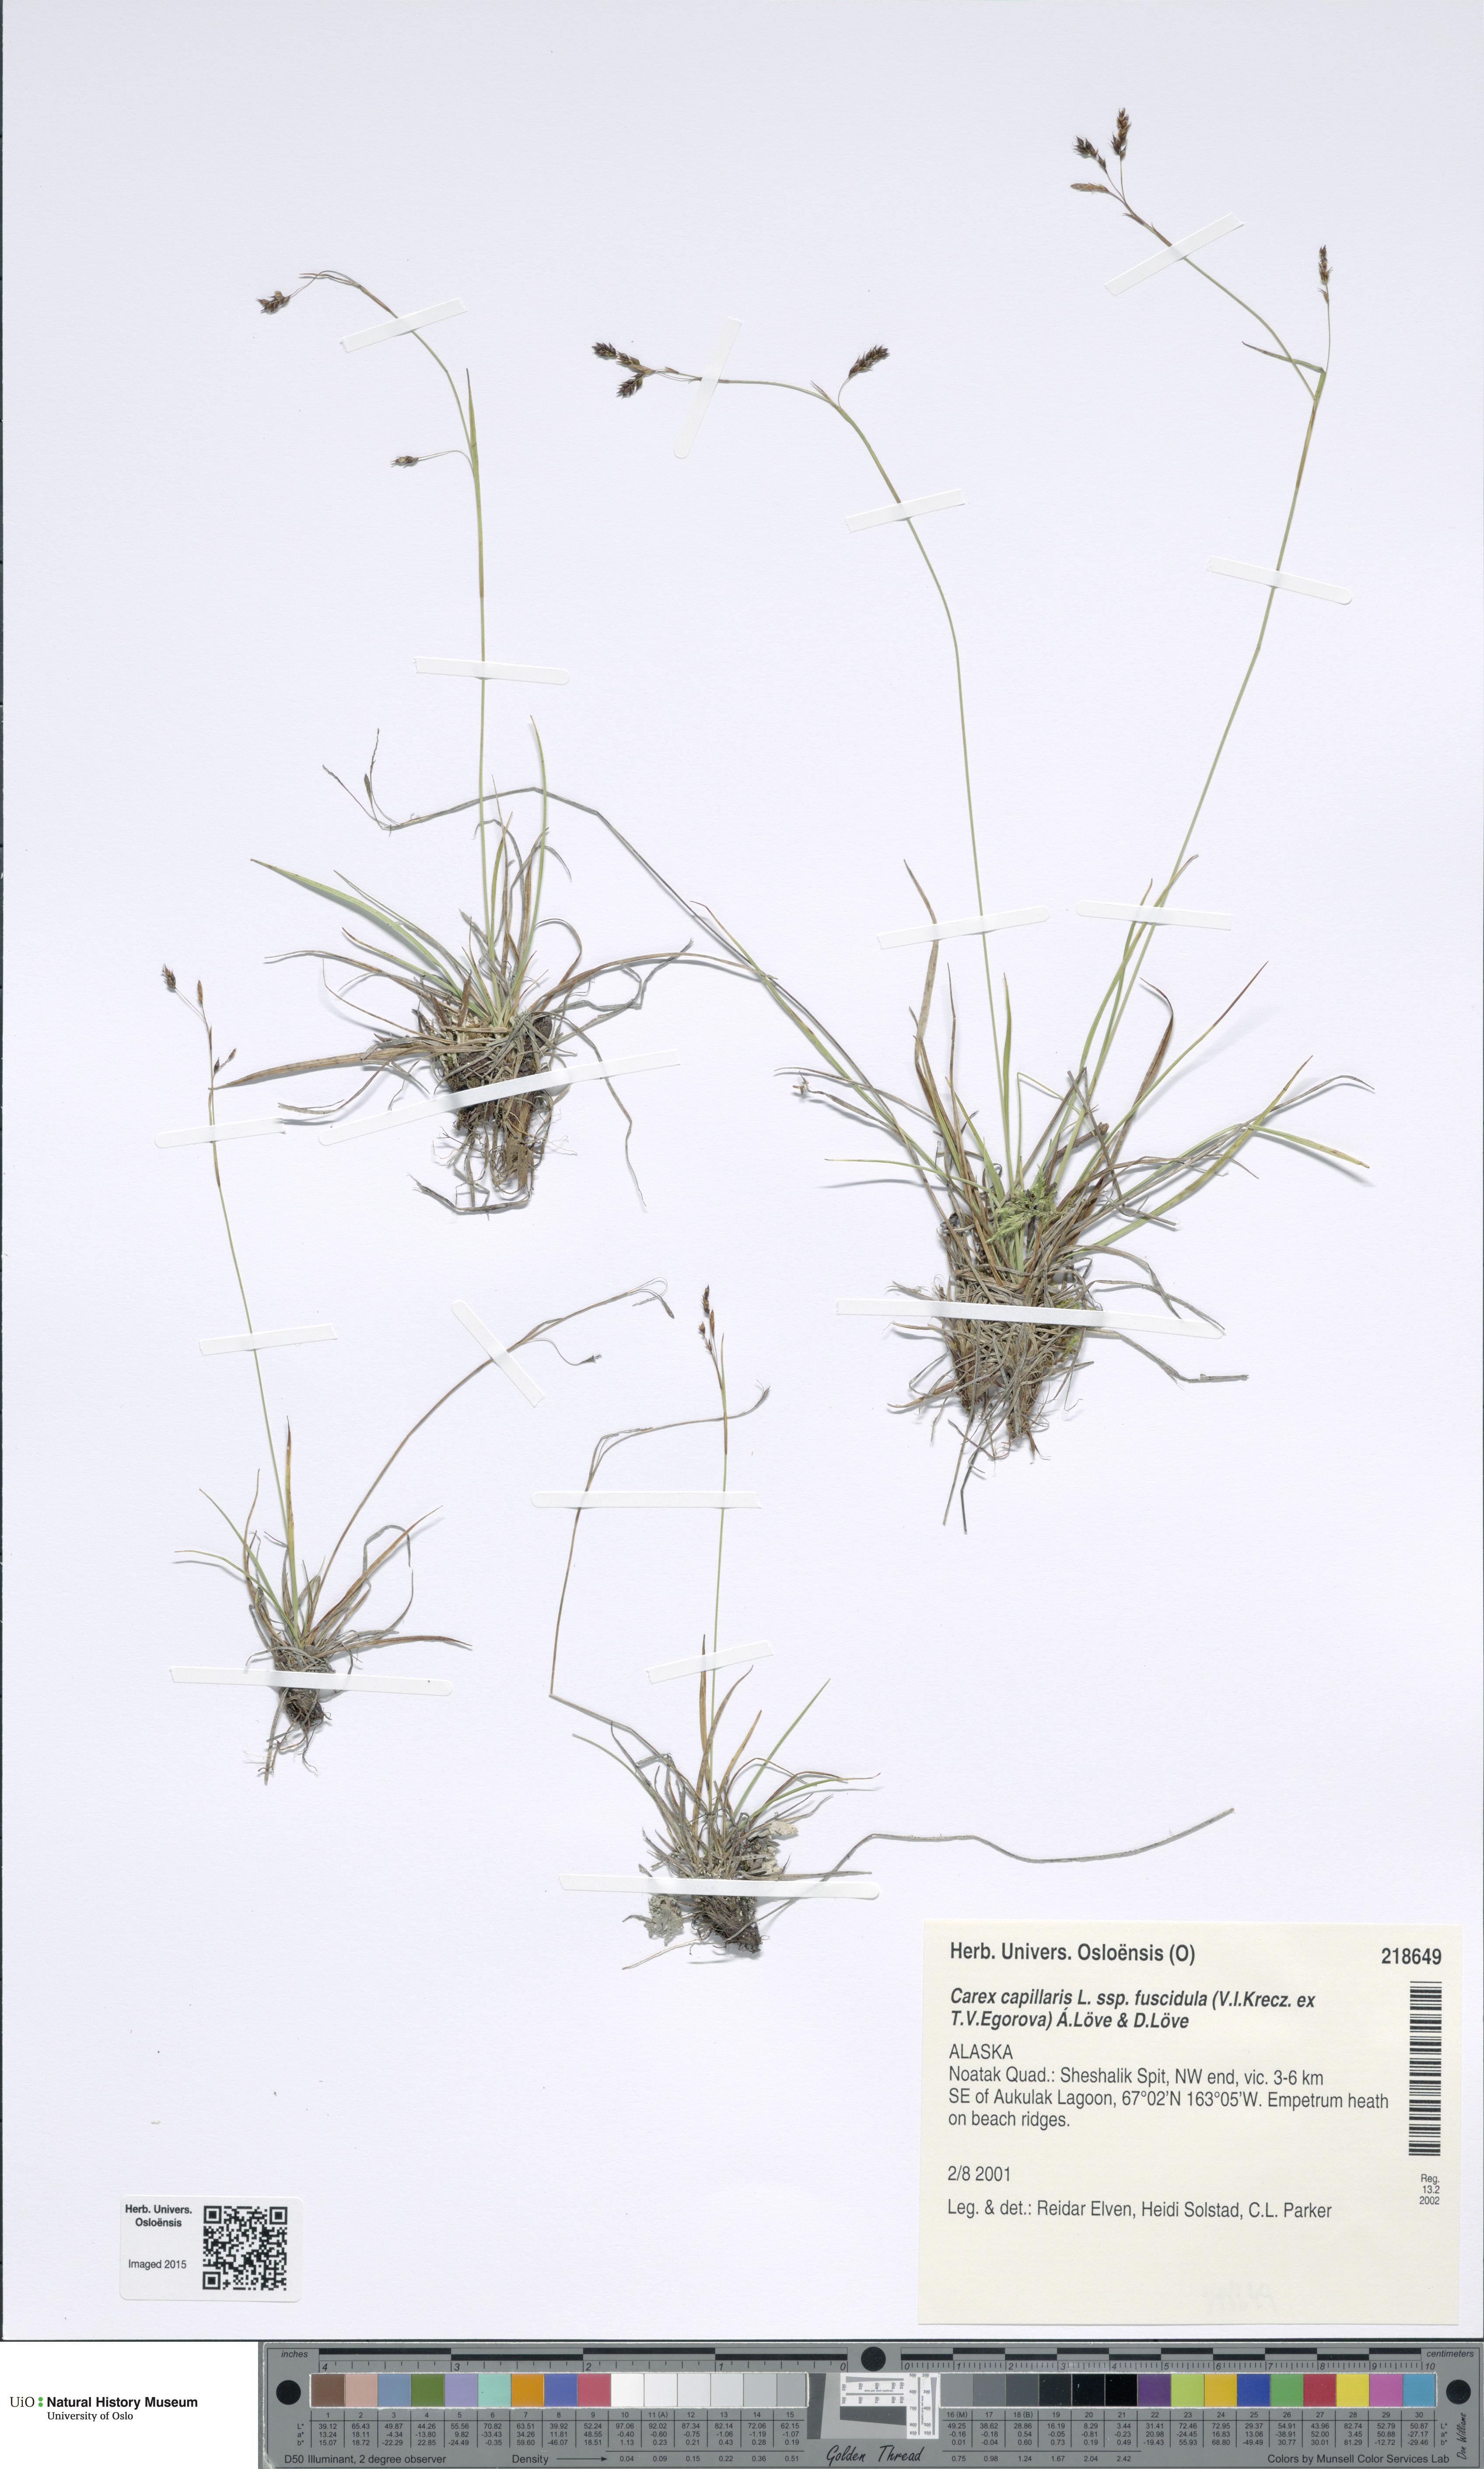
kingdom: Plantae
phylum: Tracheophyta
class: Liliopsida
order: Poales
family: Cyperaceae
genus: Carex
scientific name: Carex capillaris
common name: Hair sedge
